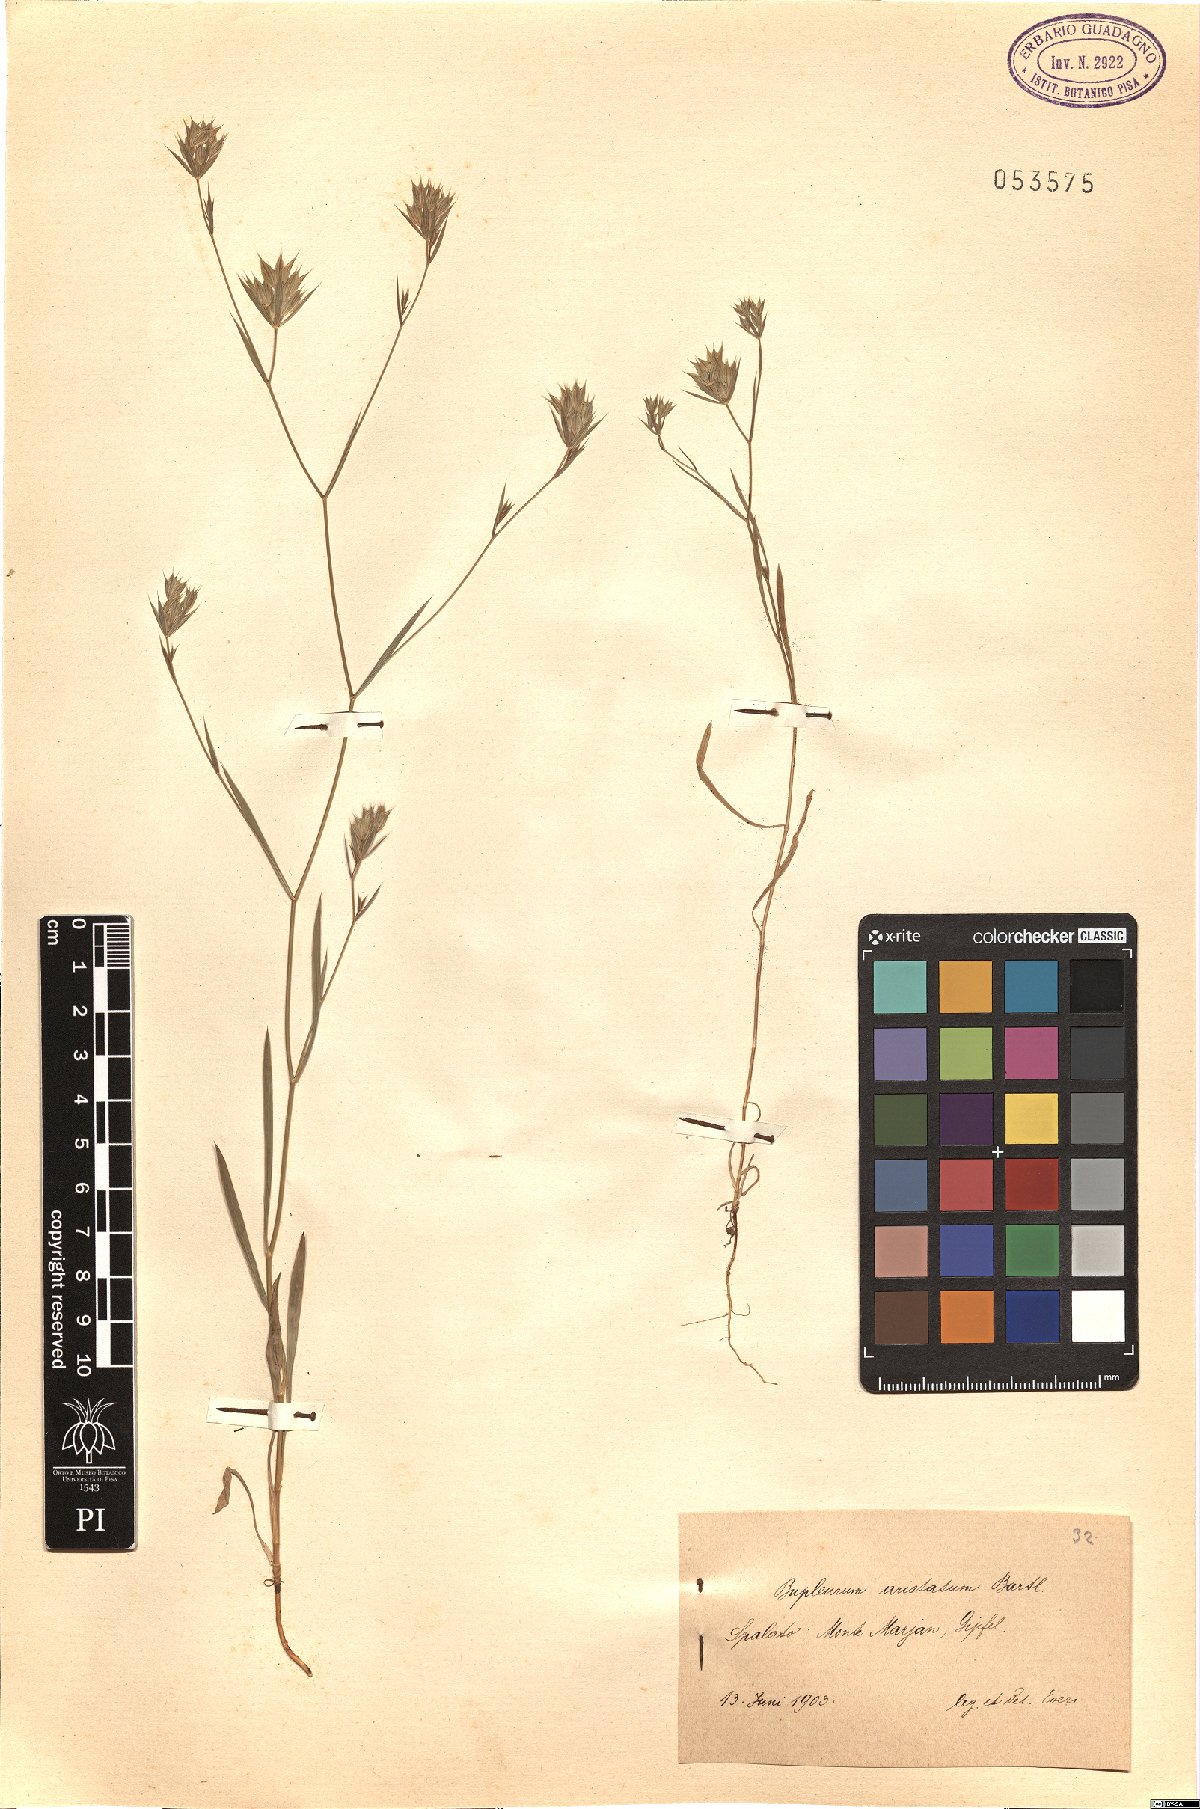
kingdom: Plantae
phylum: Tracheophyta
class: Magnoliopsida
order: Apiales
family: Apiaceae
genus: Bupleurum
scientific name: Bupleurum aristatum
